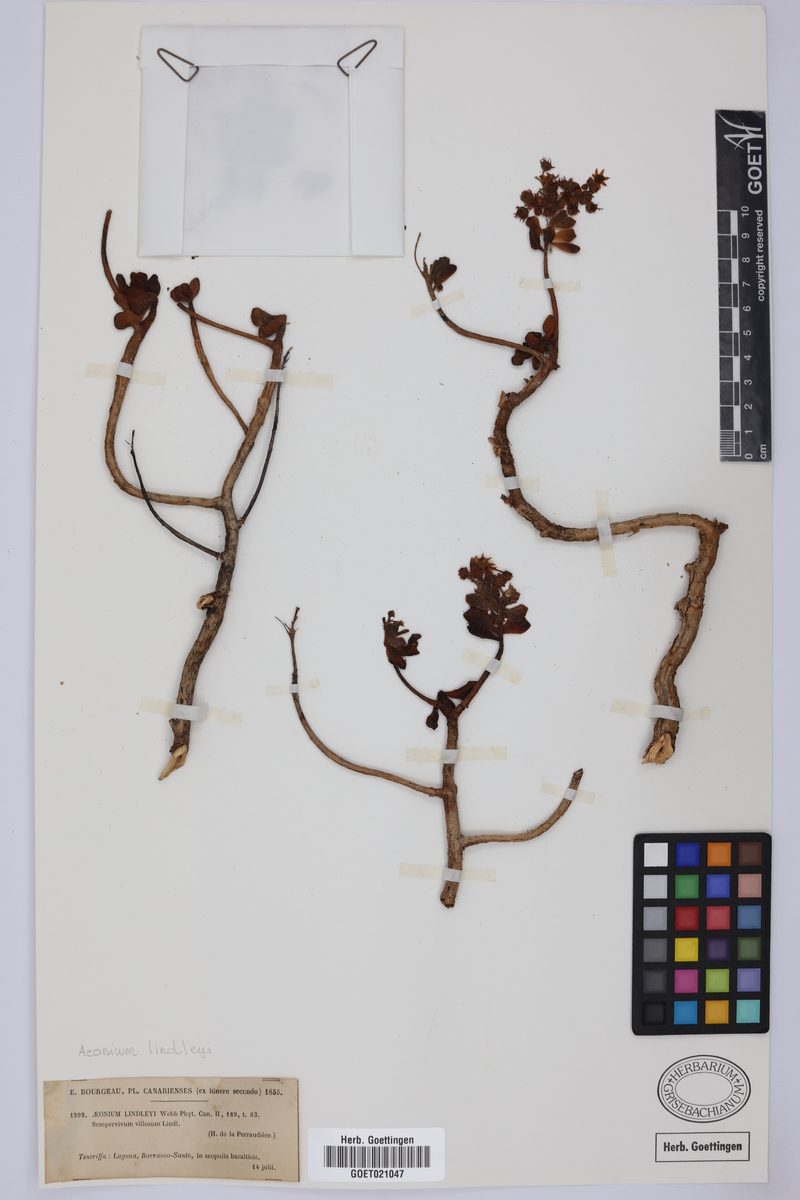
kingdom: Plantae
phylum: Tracheophyta
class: Magnoliopsida
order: Saxifragales
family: Crassulaceae
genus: Aeonium
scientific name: Aeonium lindleyi
